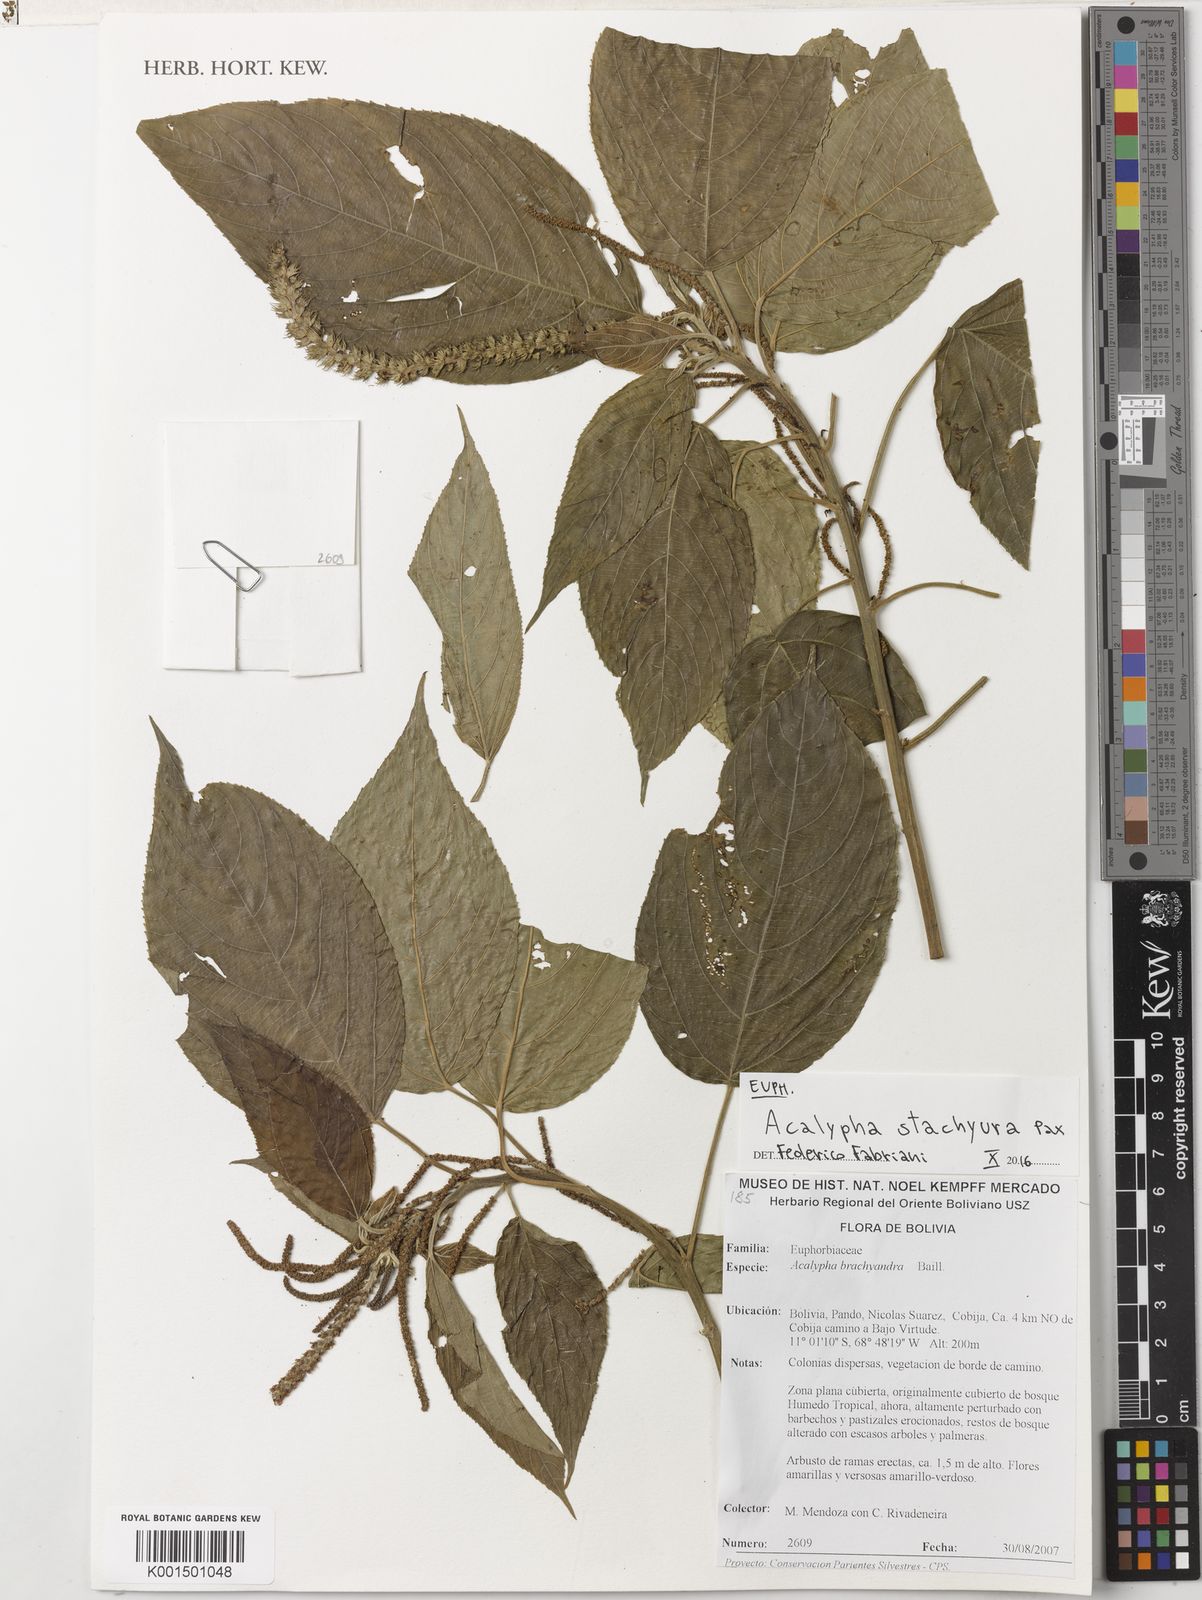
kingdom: Plantae
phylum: Tracheophyta
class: Magnoliopsida
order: Malpighiales
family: Euphorbiaceae
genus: Acalypha
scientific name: Acalypha stachyura
